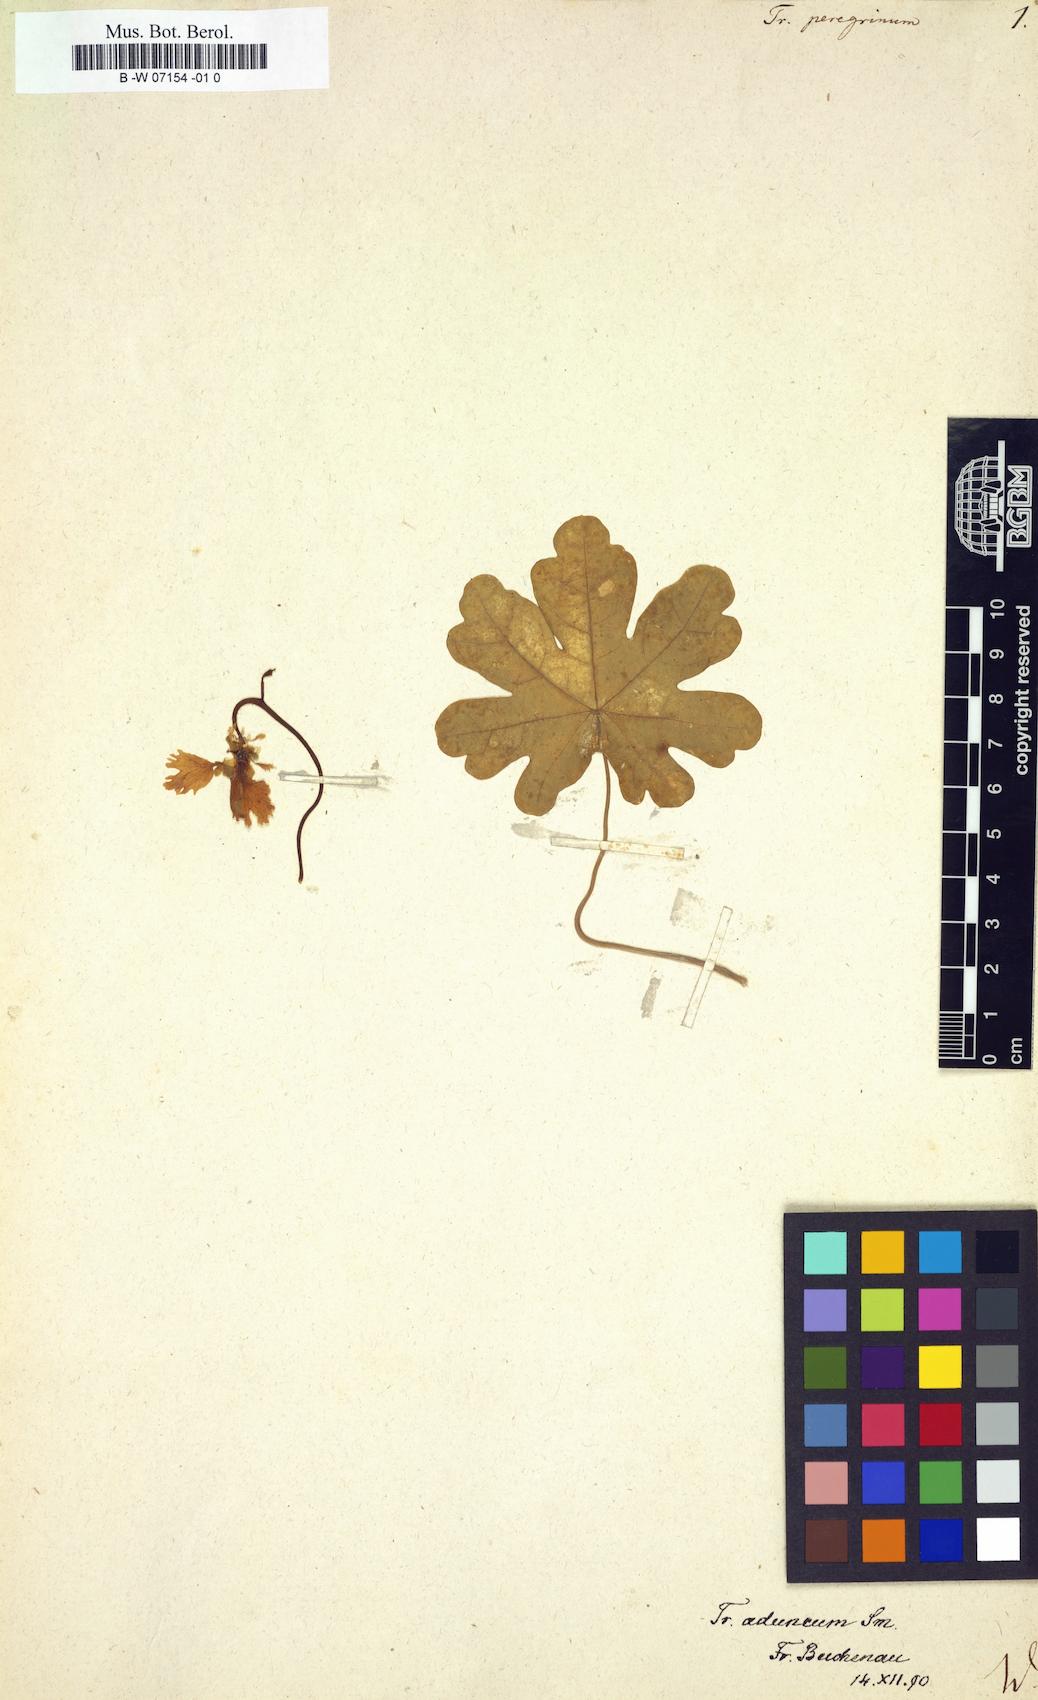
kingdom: Plantae
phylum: Tracheophyta
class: Magnoliopsida
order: Brassicales
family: Tropaeolaceae
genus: Tropaeolum
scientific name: Tropaeolum peregrinum
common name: Canary-creeper
